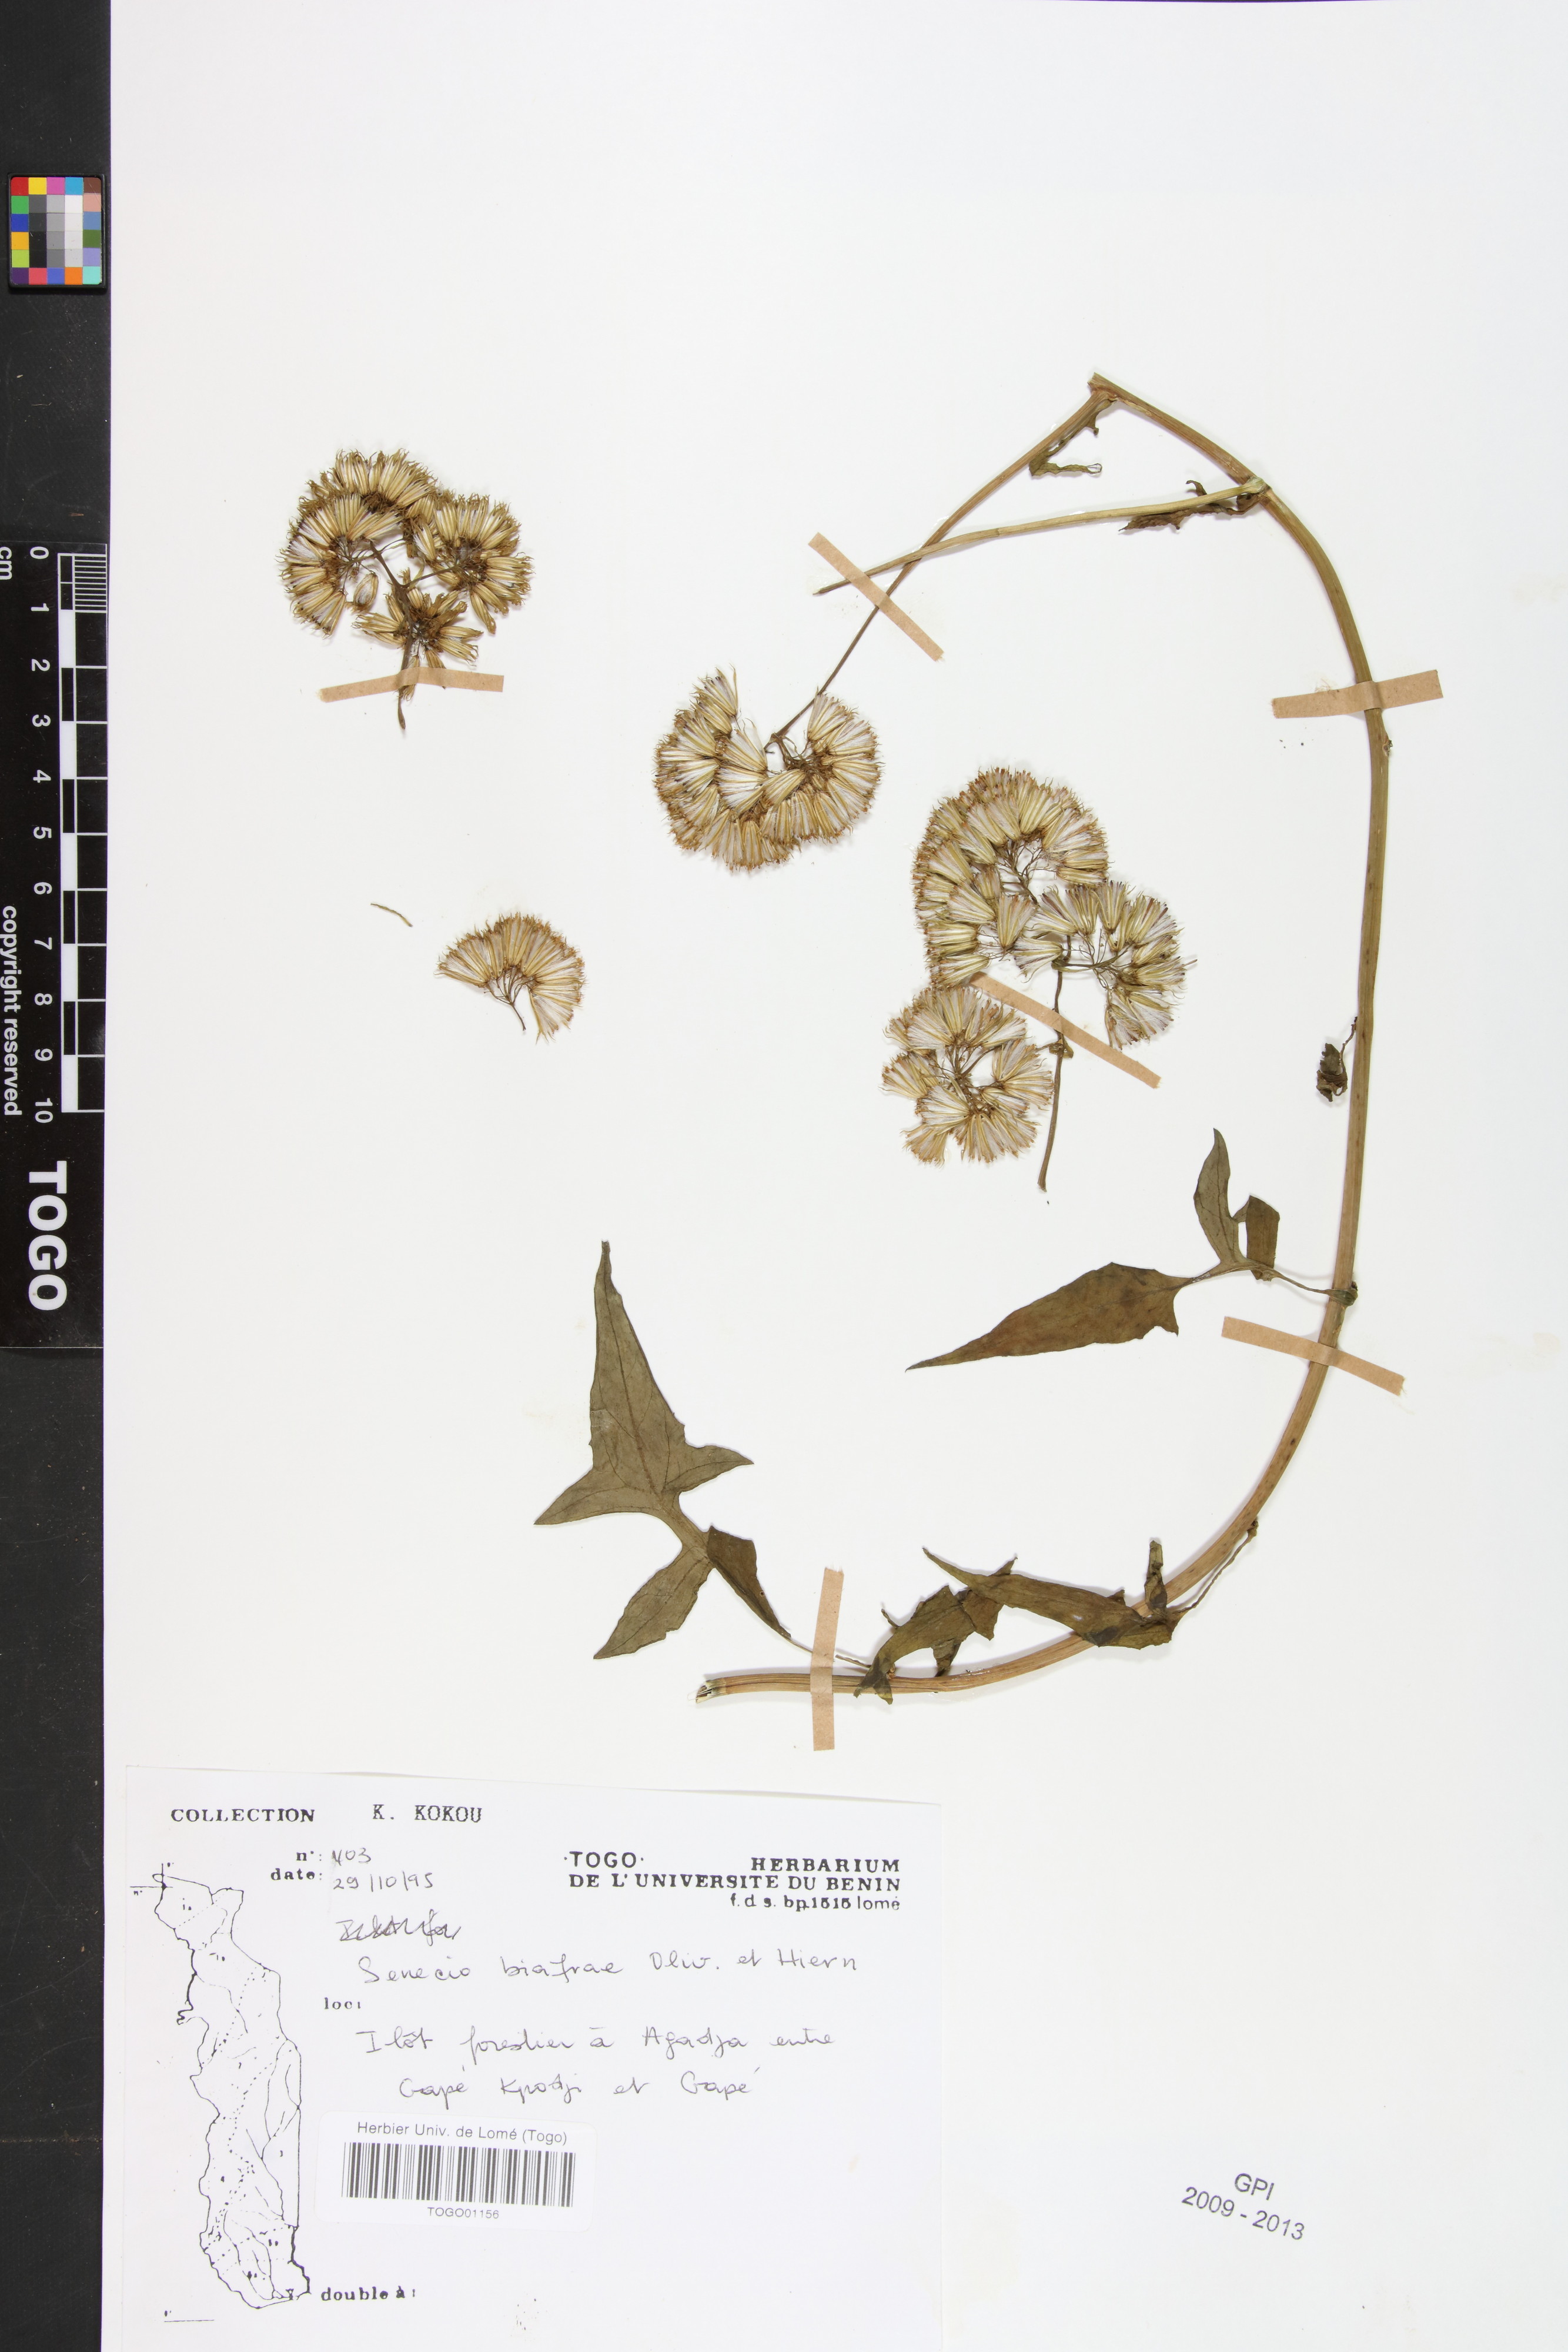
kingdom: Plantae
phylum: Tracheophyta
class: Magnoliopsida
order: Asterales
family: Asteraceae
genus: Solanecio
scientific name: Solanecio biafrae
